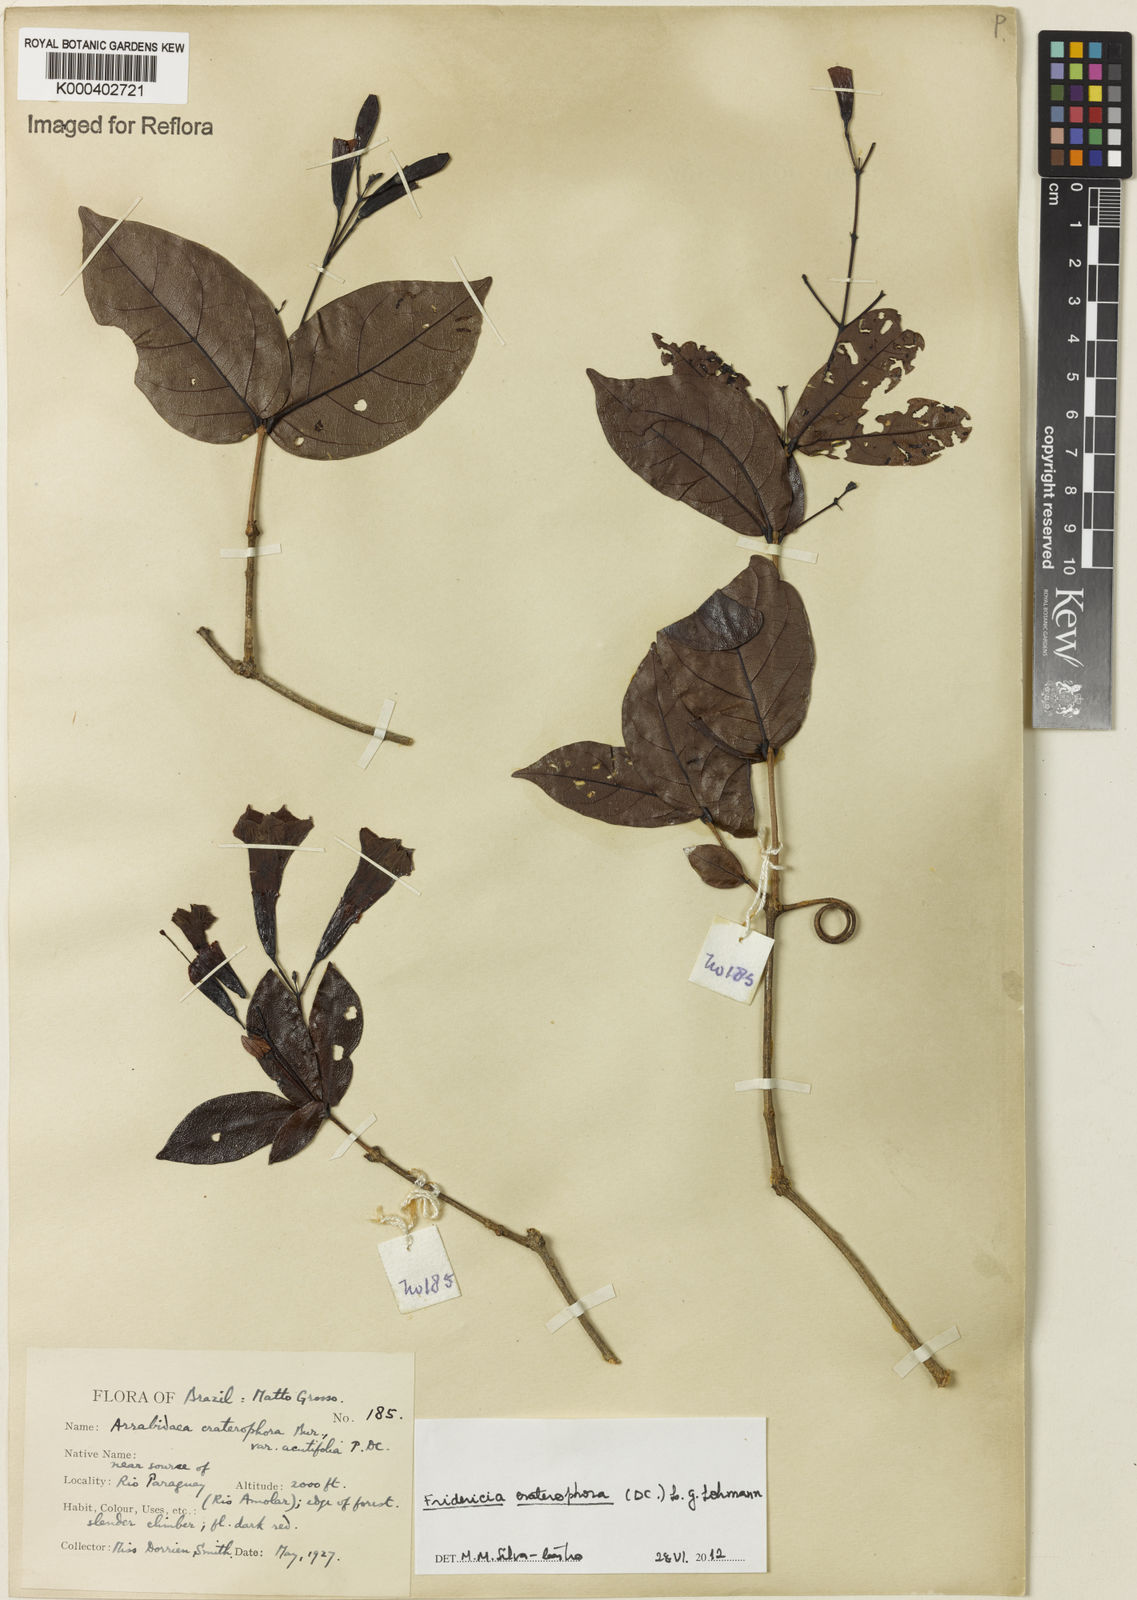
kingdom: Plantae
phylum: Tracheophyta
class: Magnoliopsida
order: Lamiales
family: Bignoniaceae
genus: Fridericia
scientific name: Fridericia craterophora
